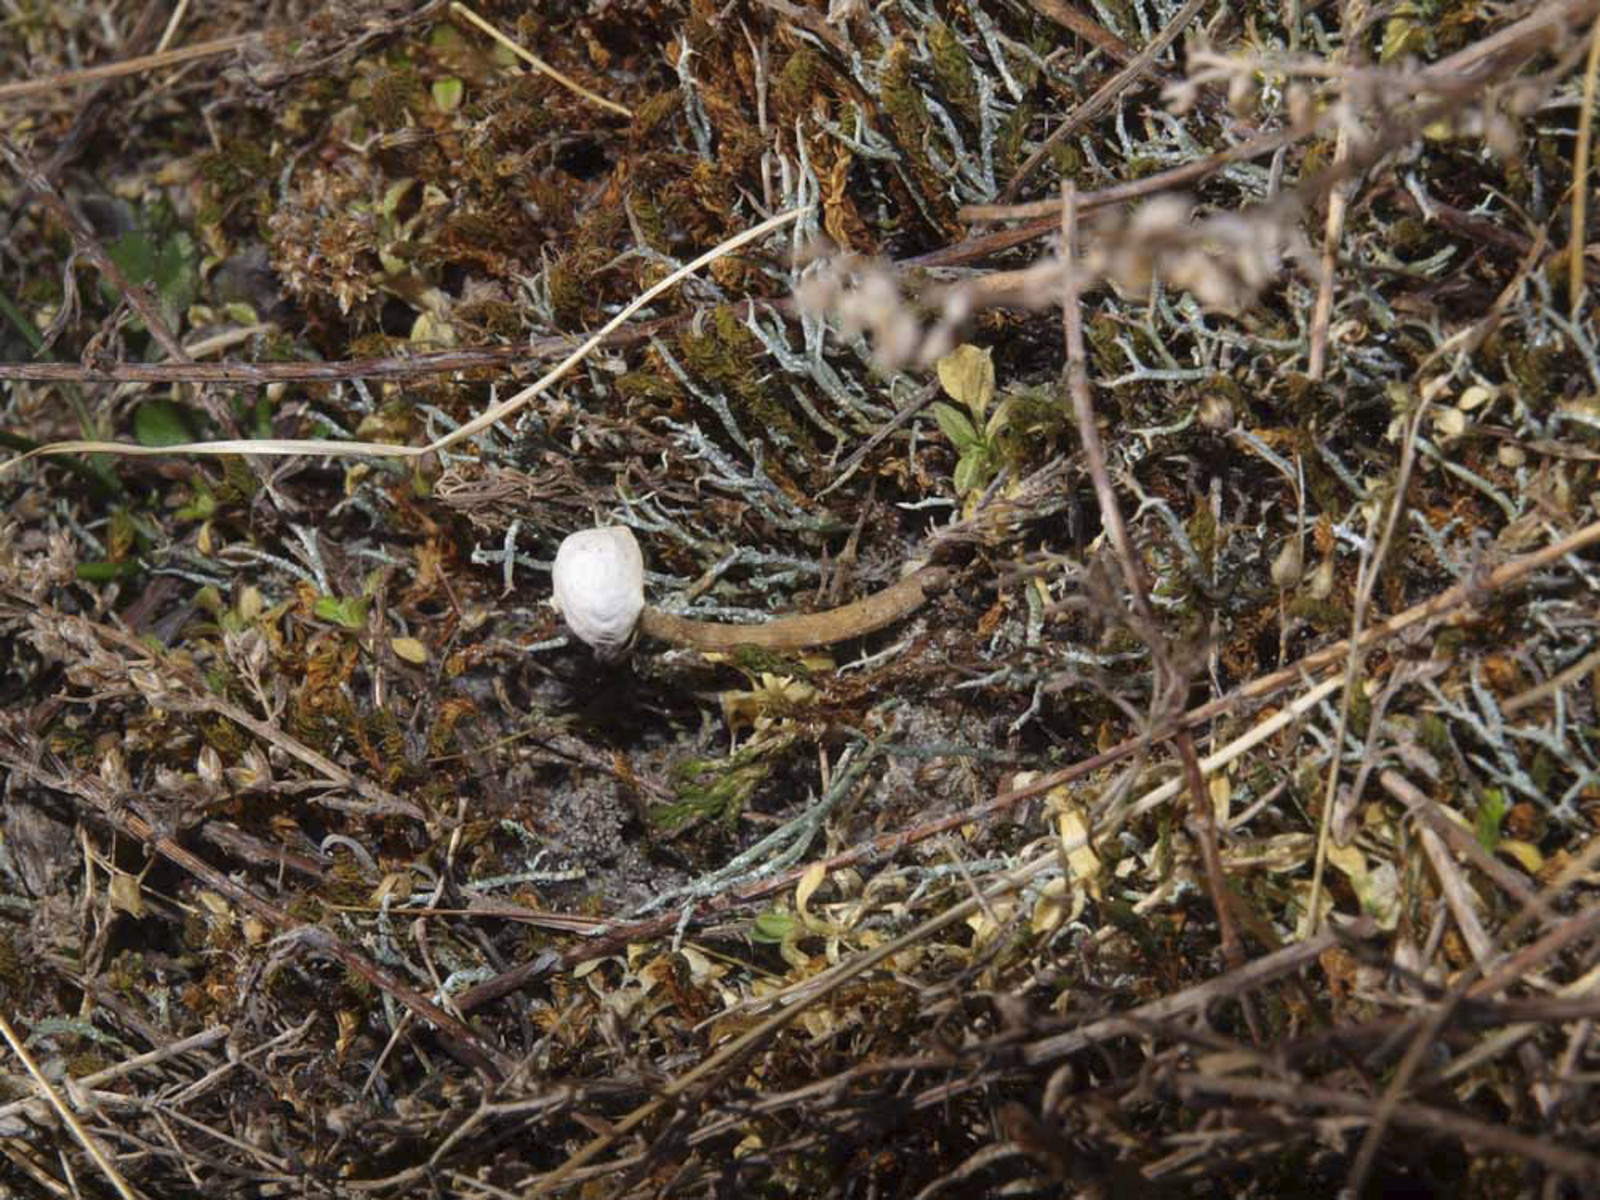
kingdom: Fungi
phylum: Basidiomycota
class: Agaricomycetes
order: Agaricales
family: Agaricaceae
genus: Tulostoma
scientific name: Tulostoma brumale
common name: vinter-stilkbovist
